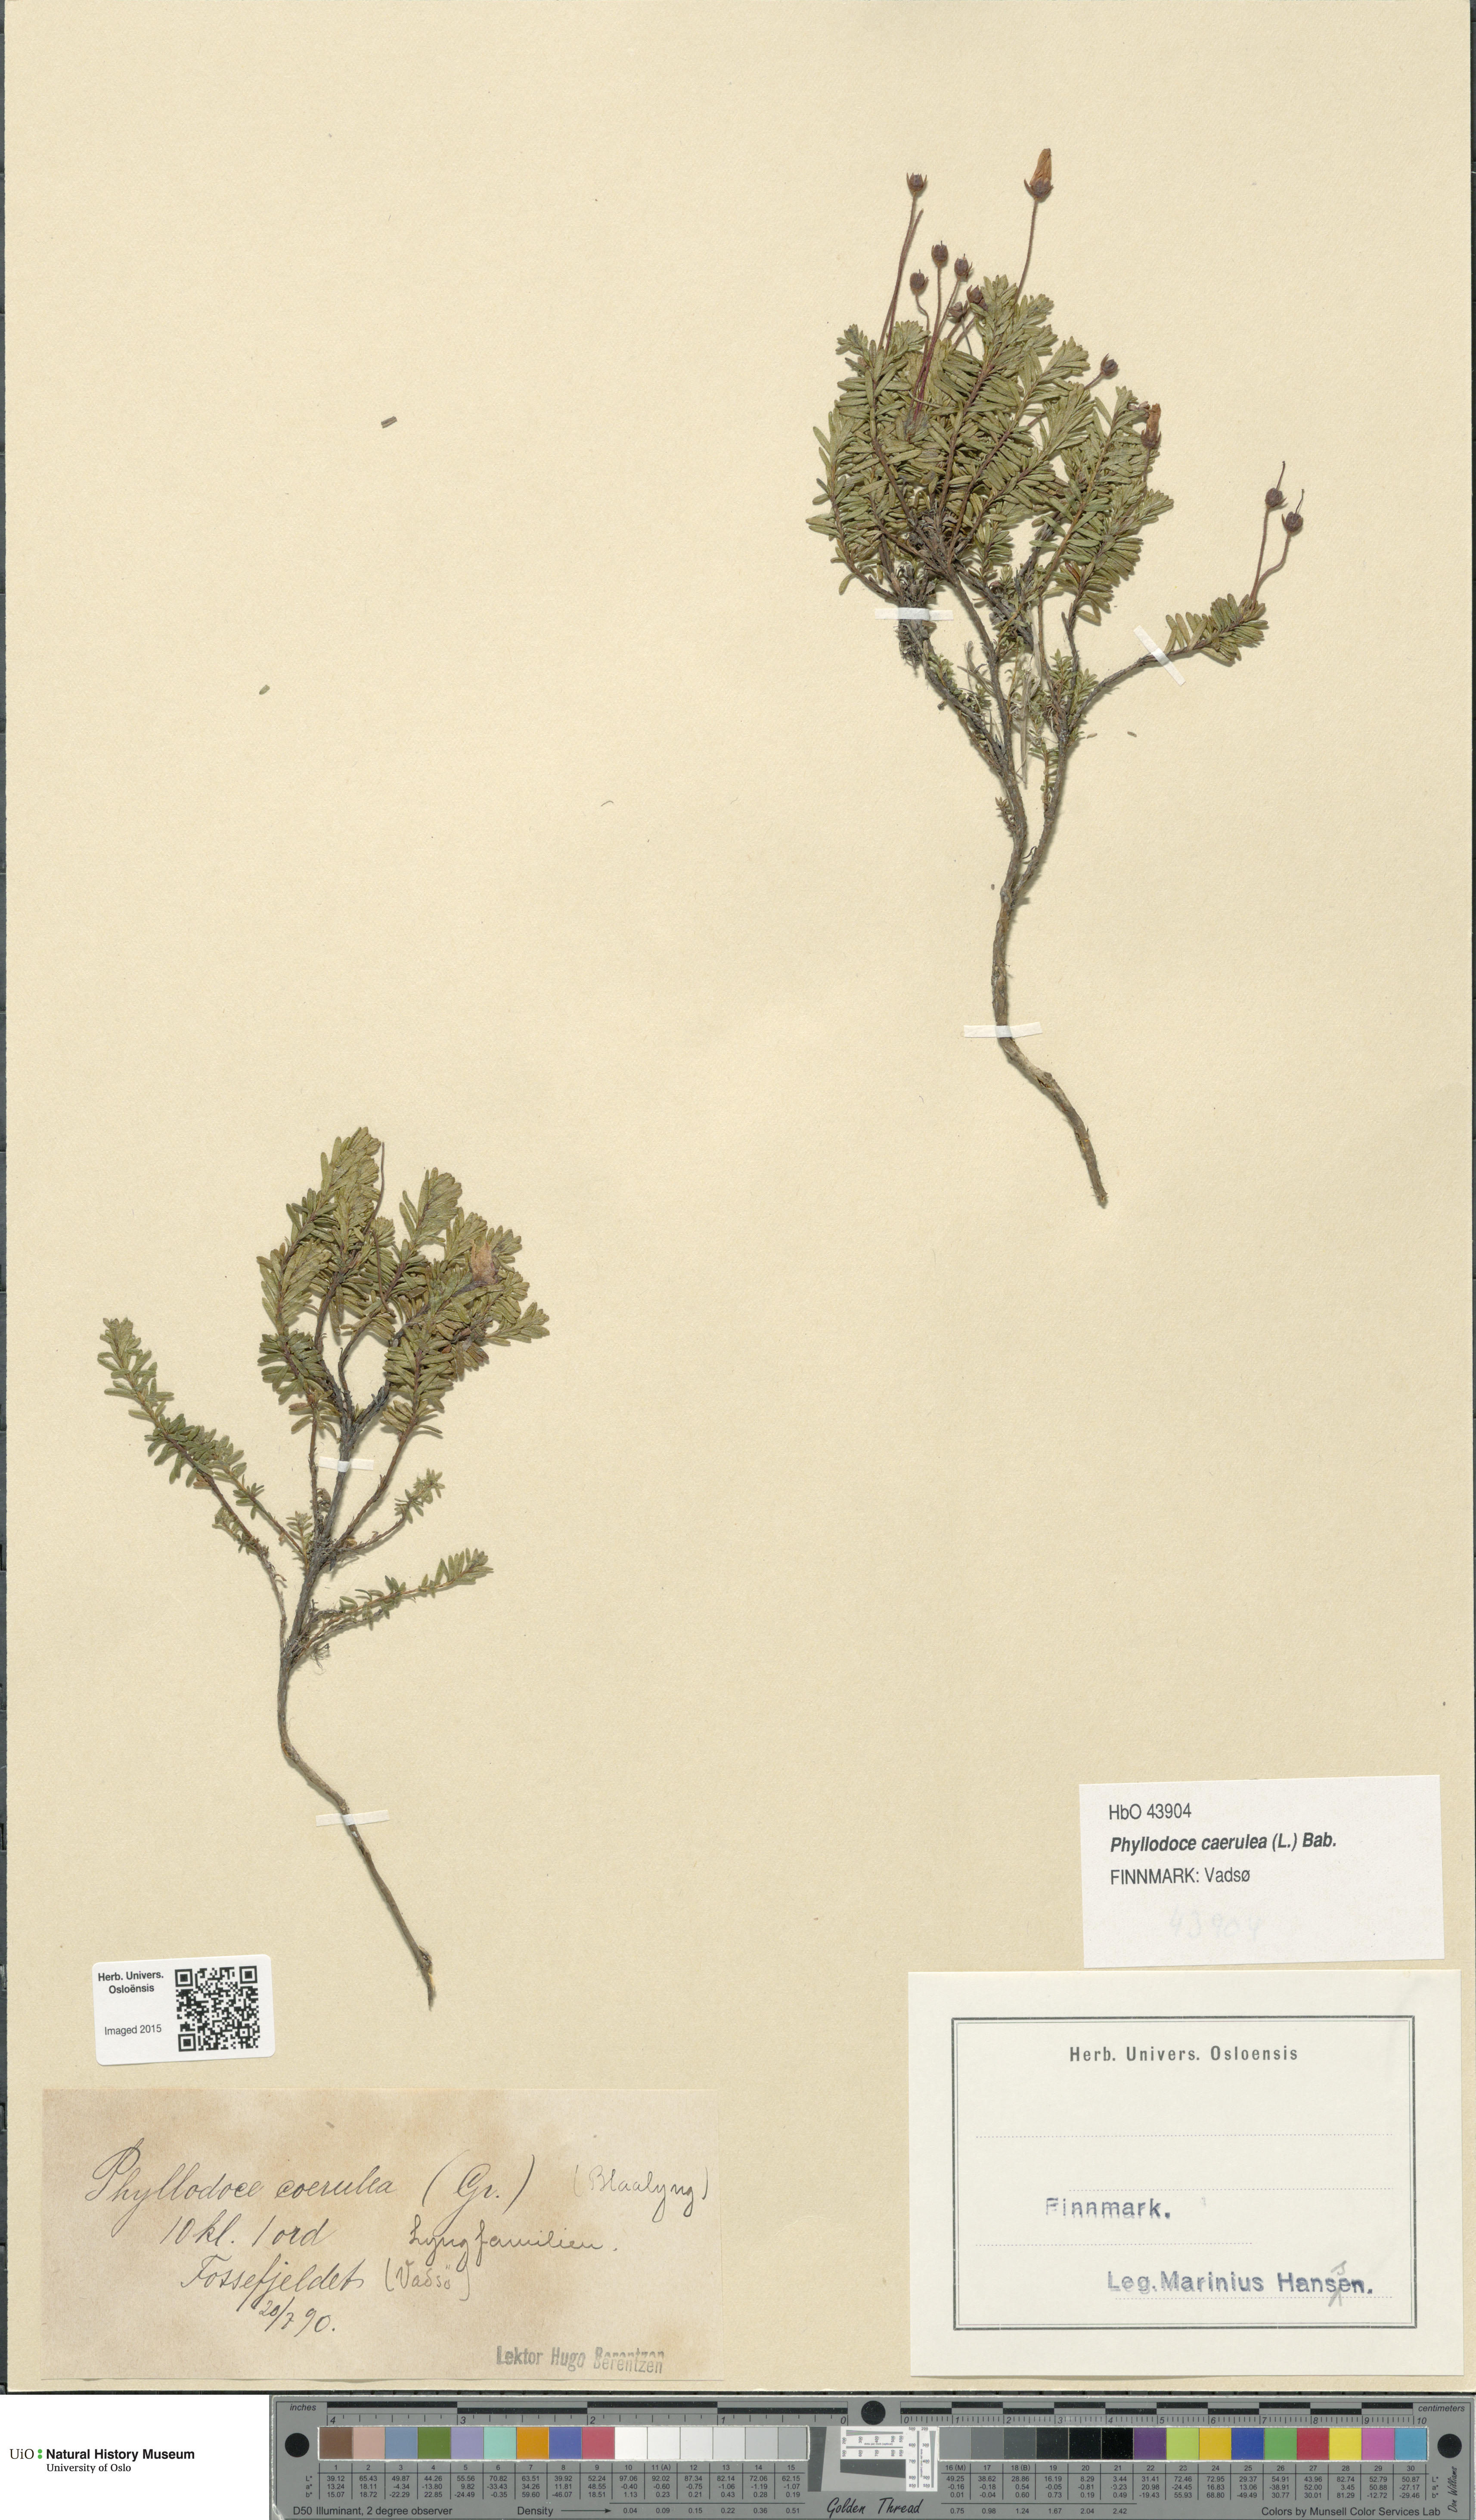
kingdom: Plantae
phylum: Tracheophyta
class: Magnoliopsida
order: Ericales
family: Ericaceae
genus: Phyllodoce
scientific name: Phyllodoce caerulea
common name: Blue heath
